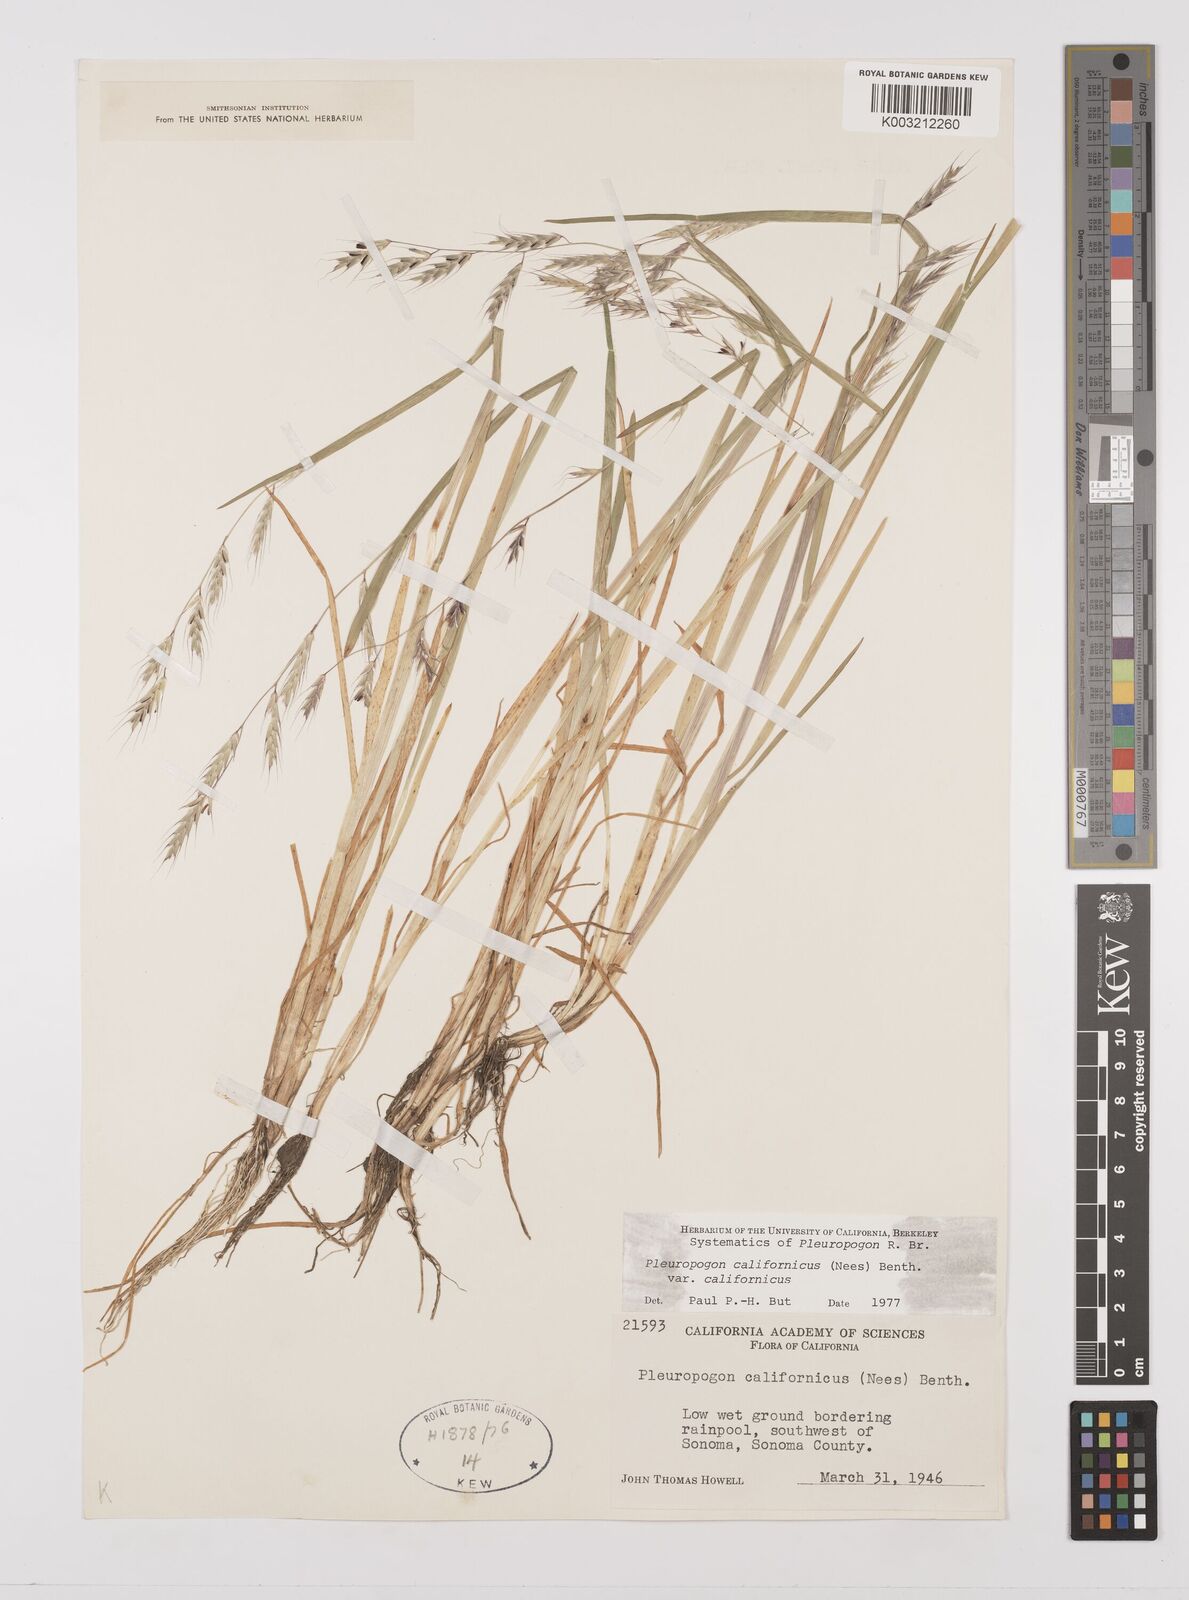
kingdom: Plantae
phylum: Tracheophyta
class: Liliopsida
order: Poales
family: Poaceae
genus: Pleuropogon
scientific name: Pleuropogon californicus
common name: California semaphore grass
